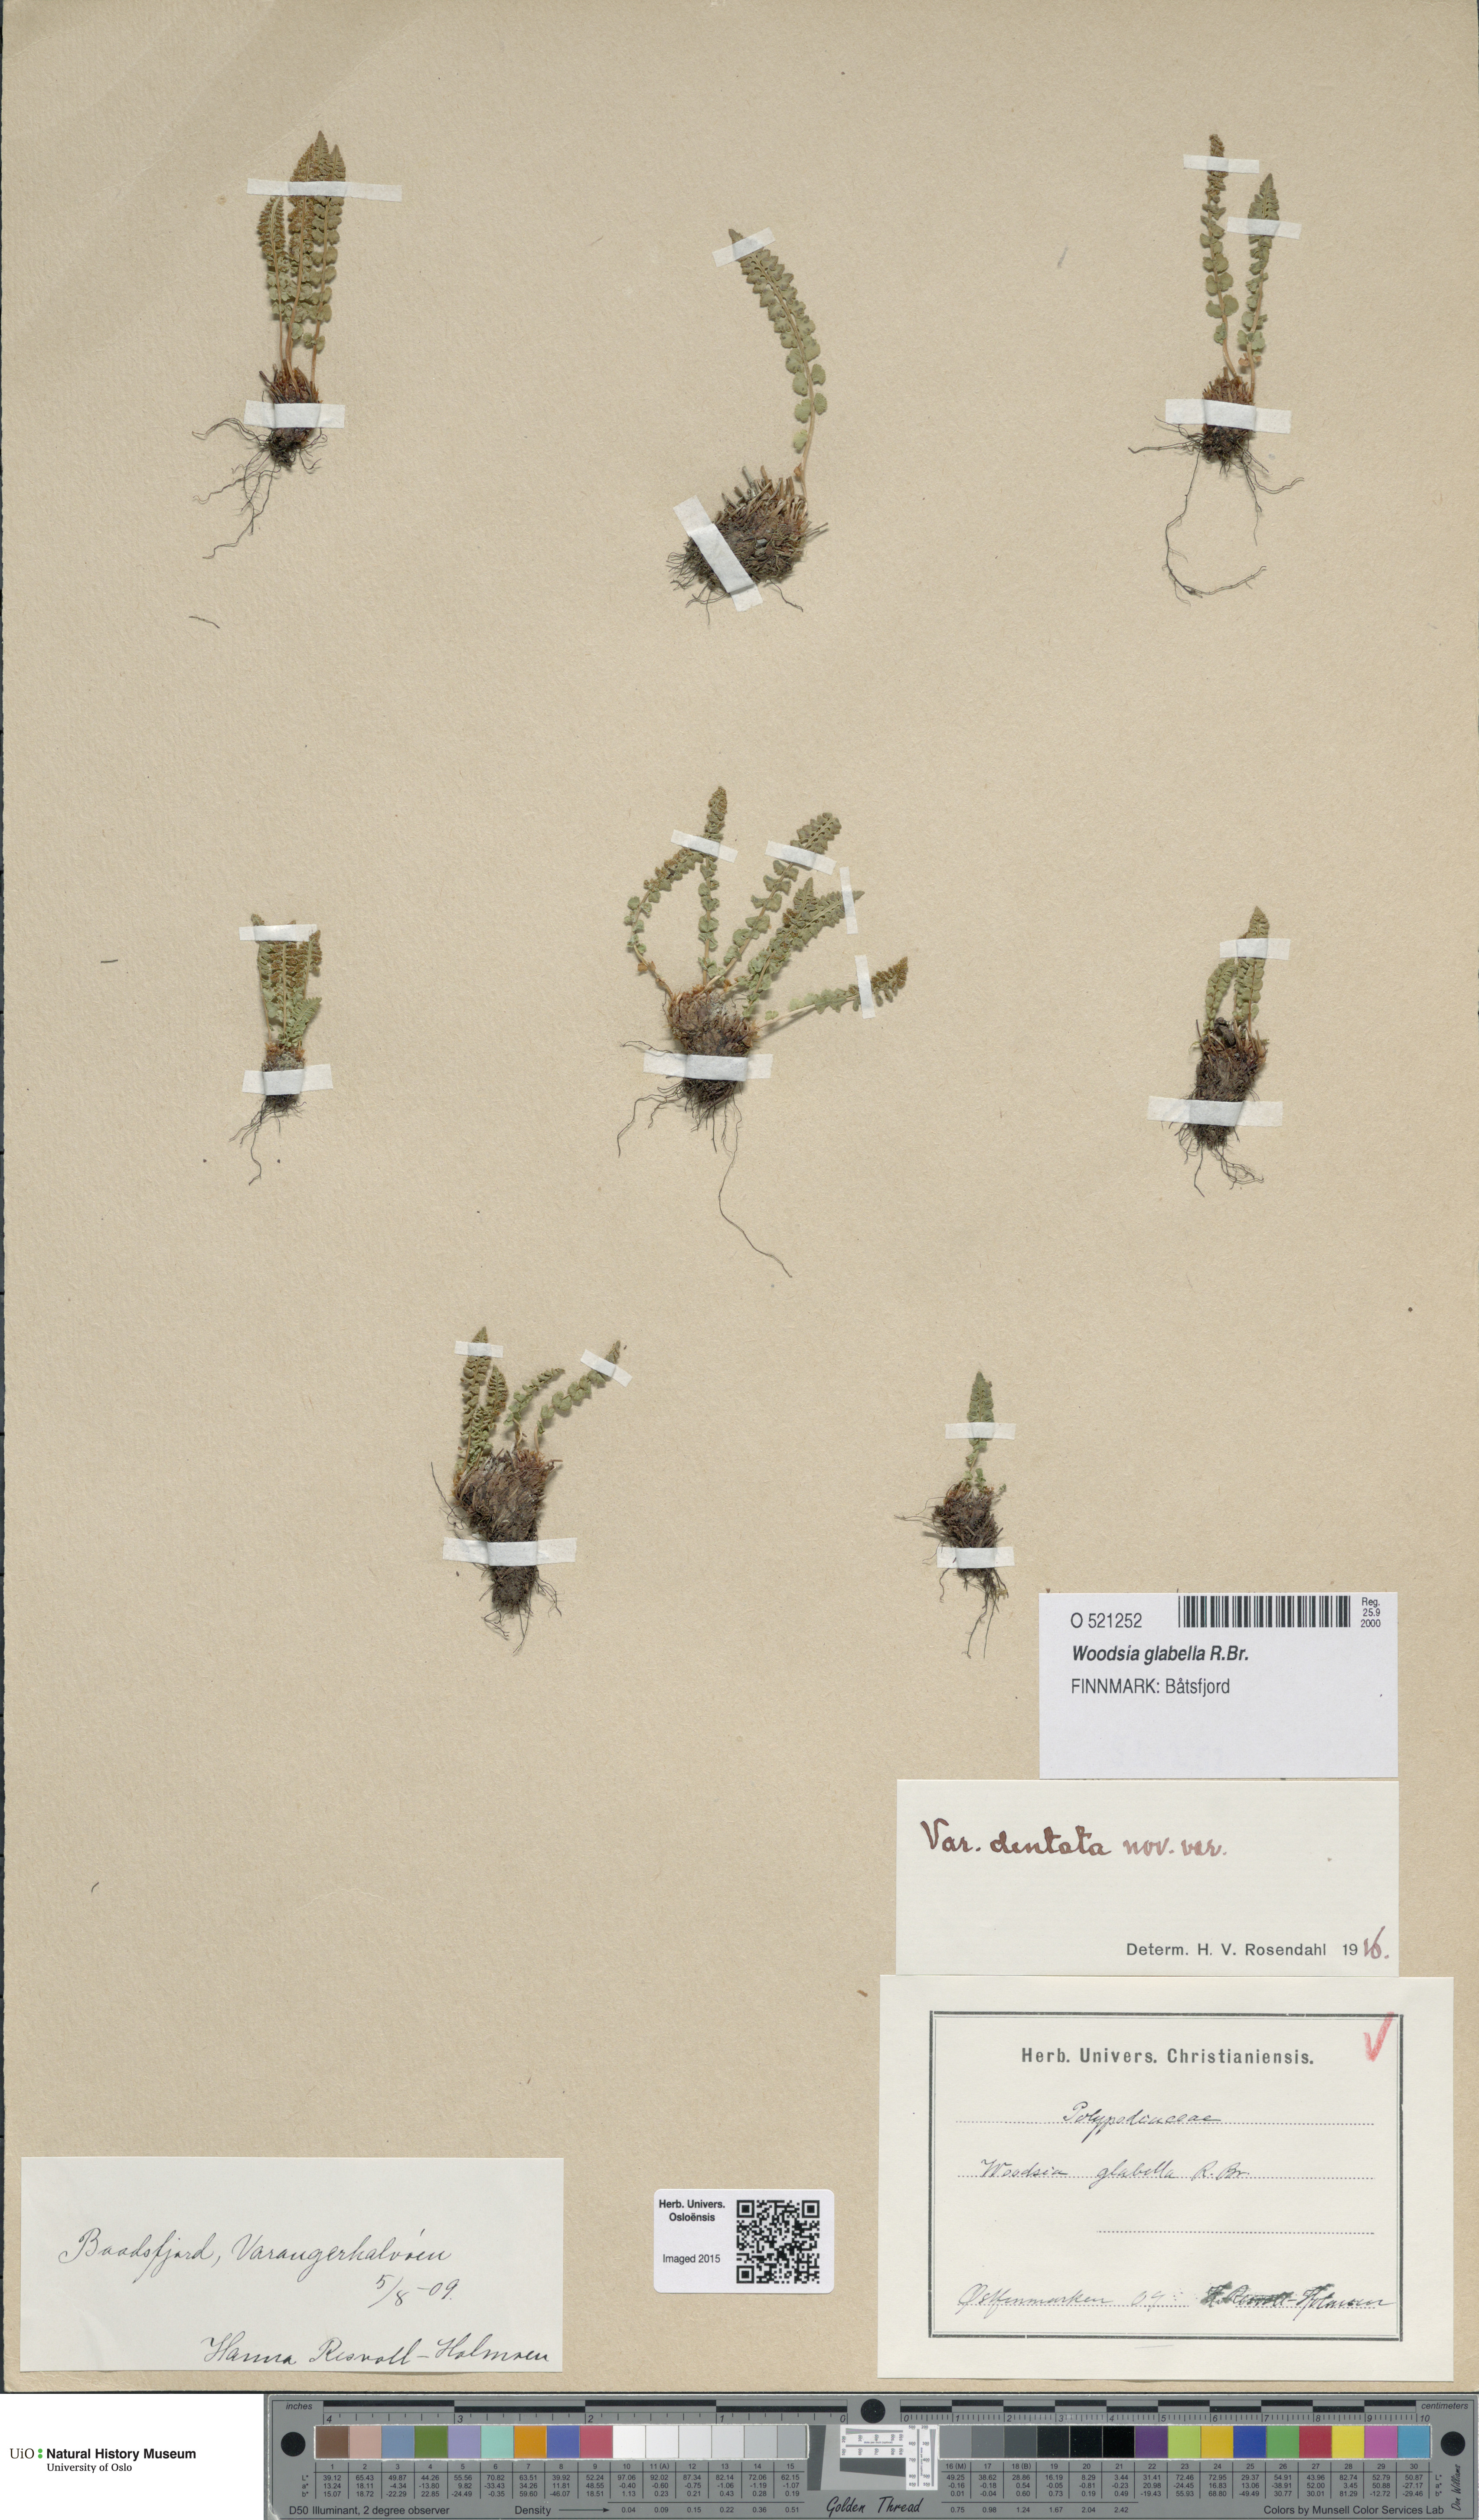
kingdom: Plantae
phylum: Tracheophyta
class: Polypodiopsida
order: Polypodiales
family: Woodsiaceae
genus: Woodsia
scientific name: Woodsia glabella
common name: Smooth woodsia
